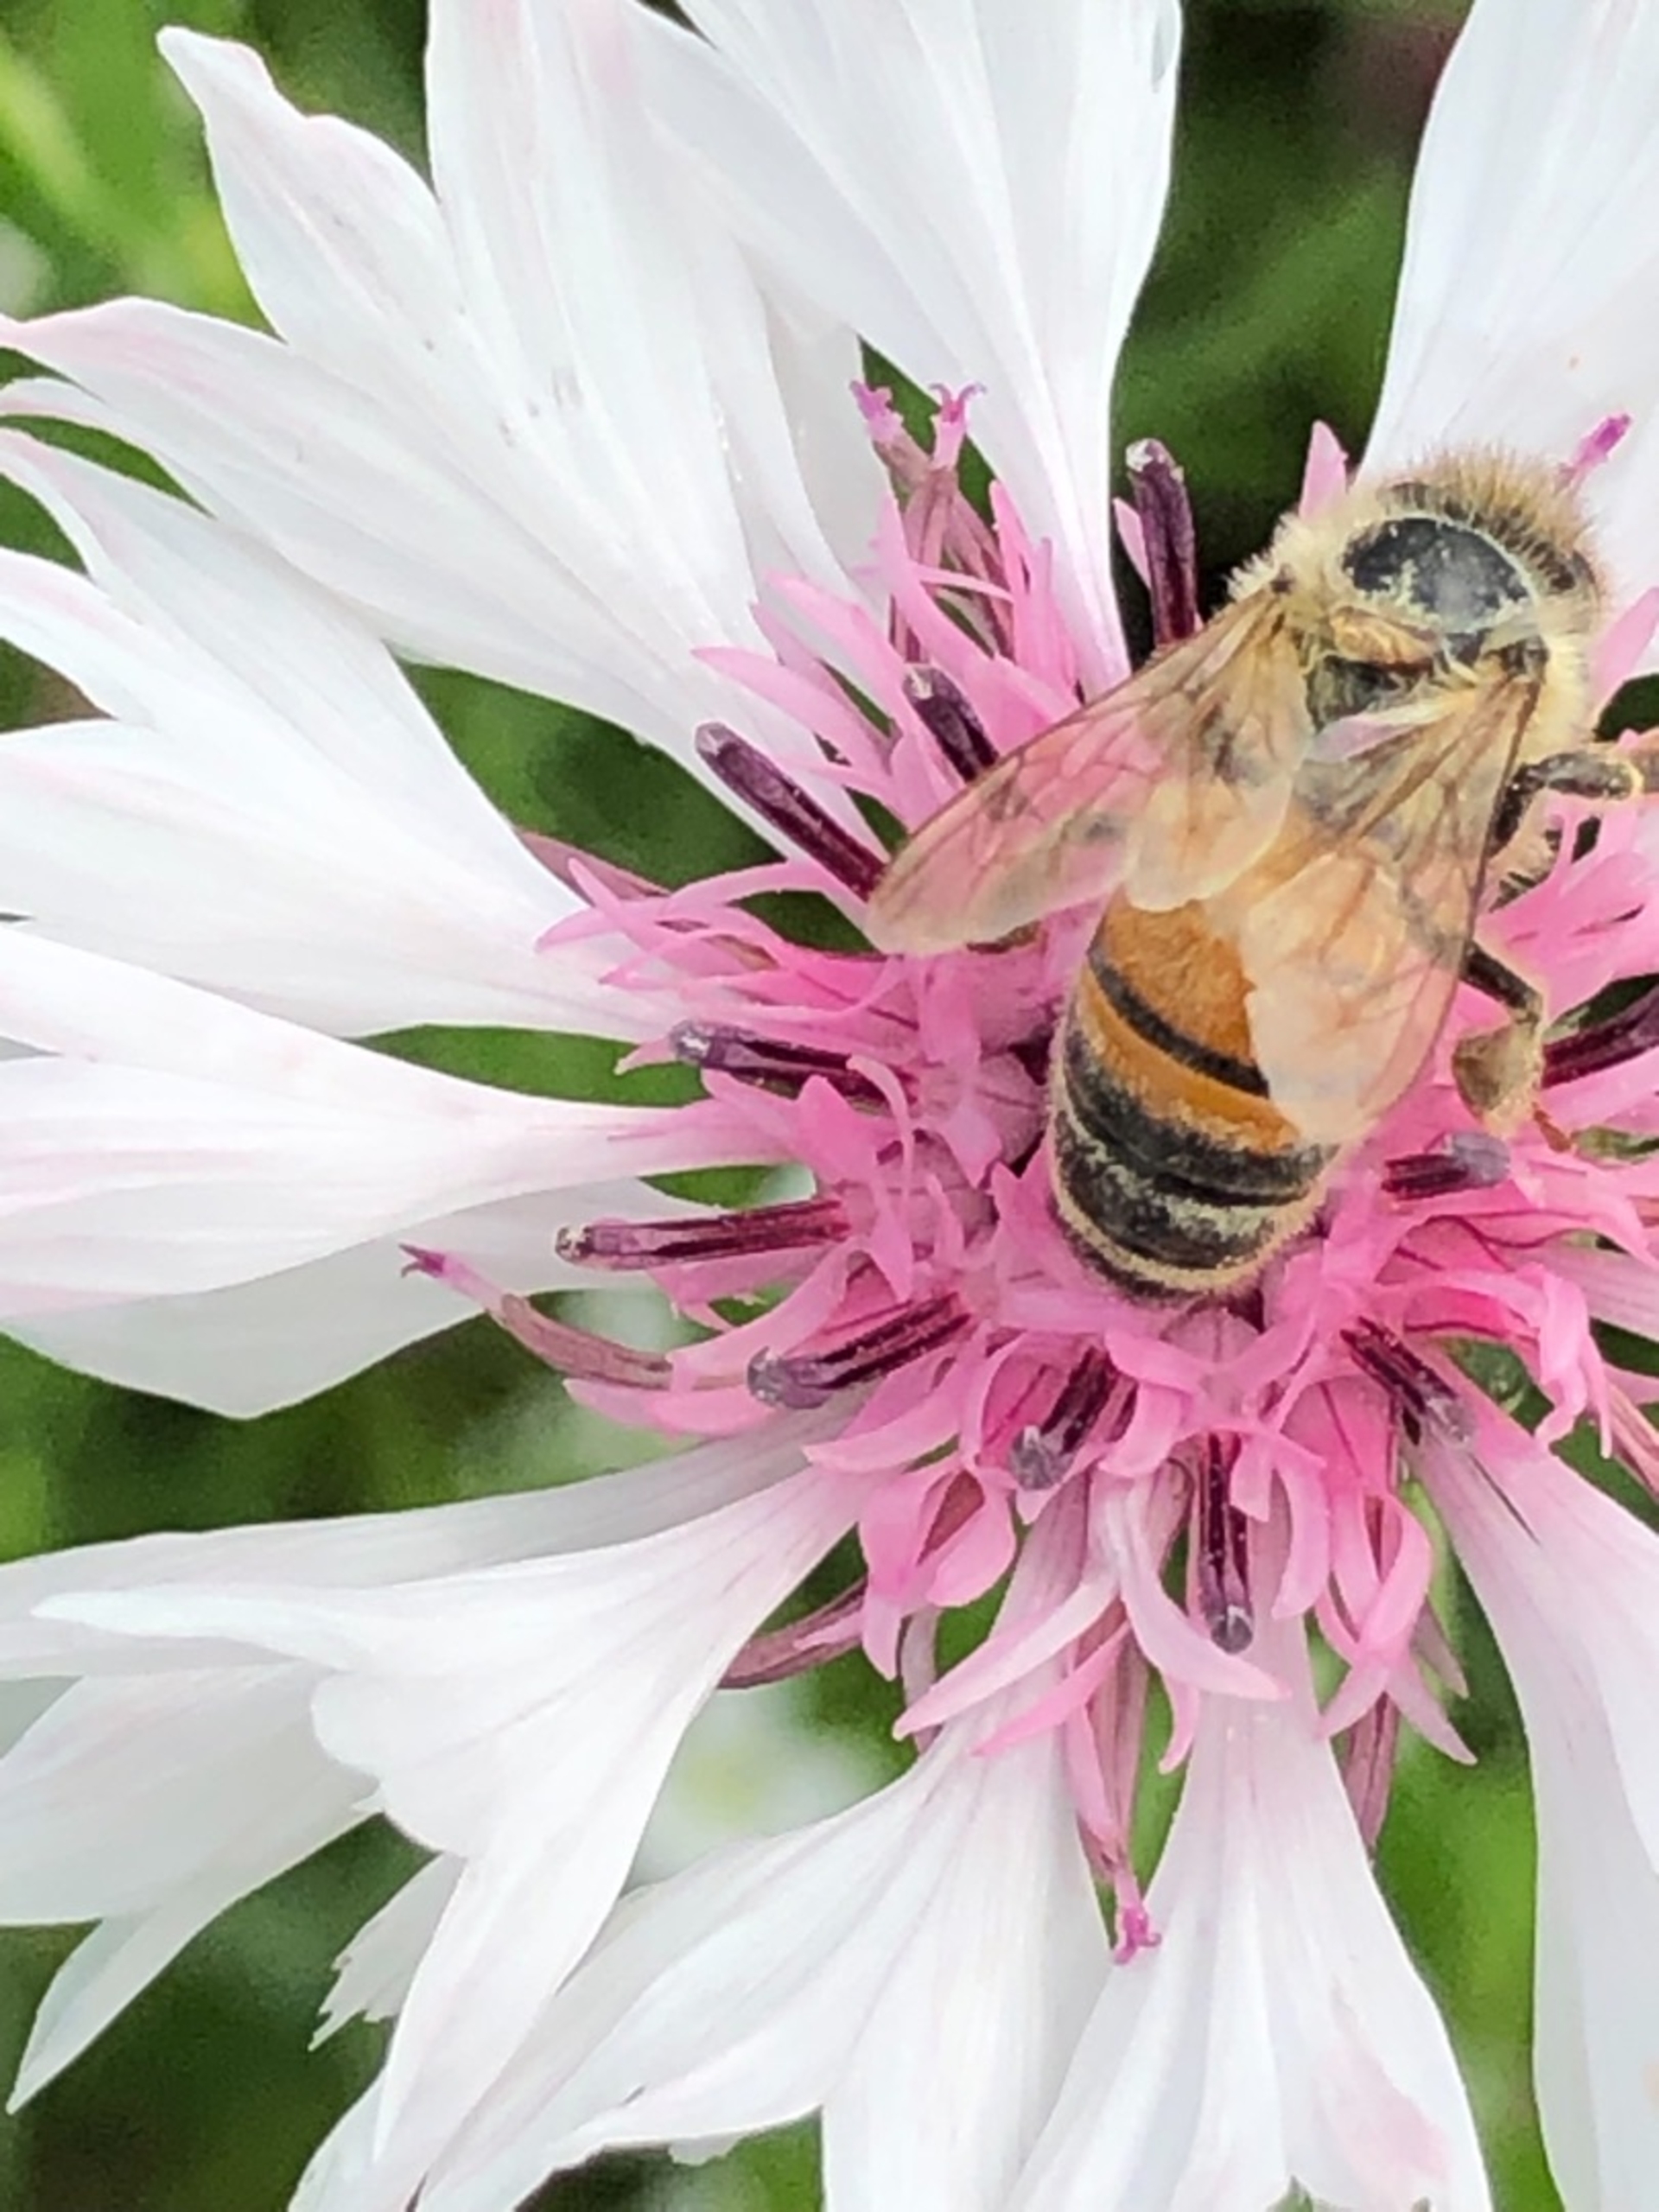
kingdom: Animalia
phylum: Arthropoda
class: Insecta
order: Hymenoptera
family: Apidae
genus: Apis
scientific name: Apis mellifera
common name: Honningbi
